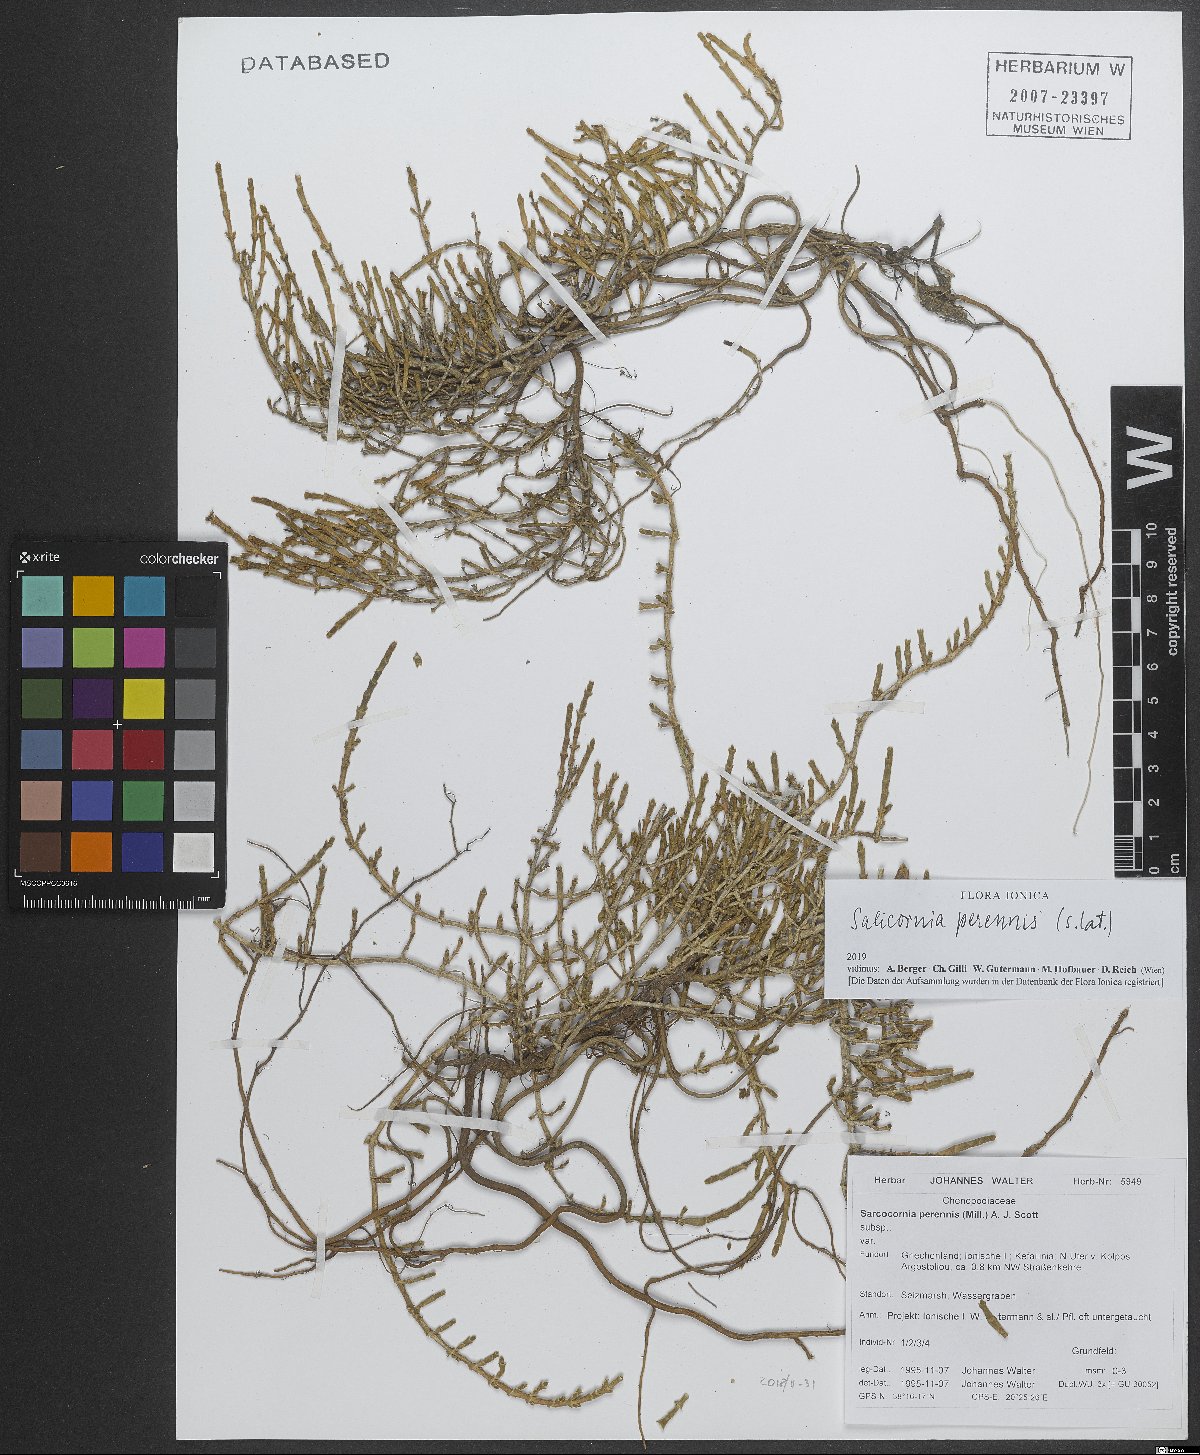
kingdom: Plantae
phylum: Tracheophyta
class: Magnoliopsida
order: Caryophyllales
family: Amaranthaceae
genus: Salicornia
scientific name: Salicornia perennis
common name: Chicken claws
